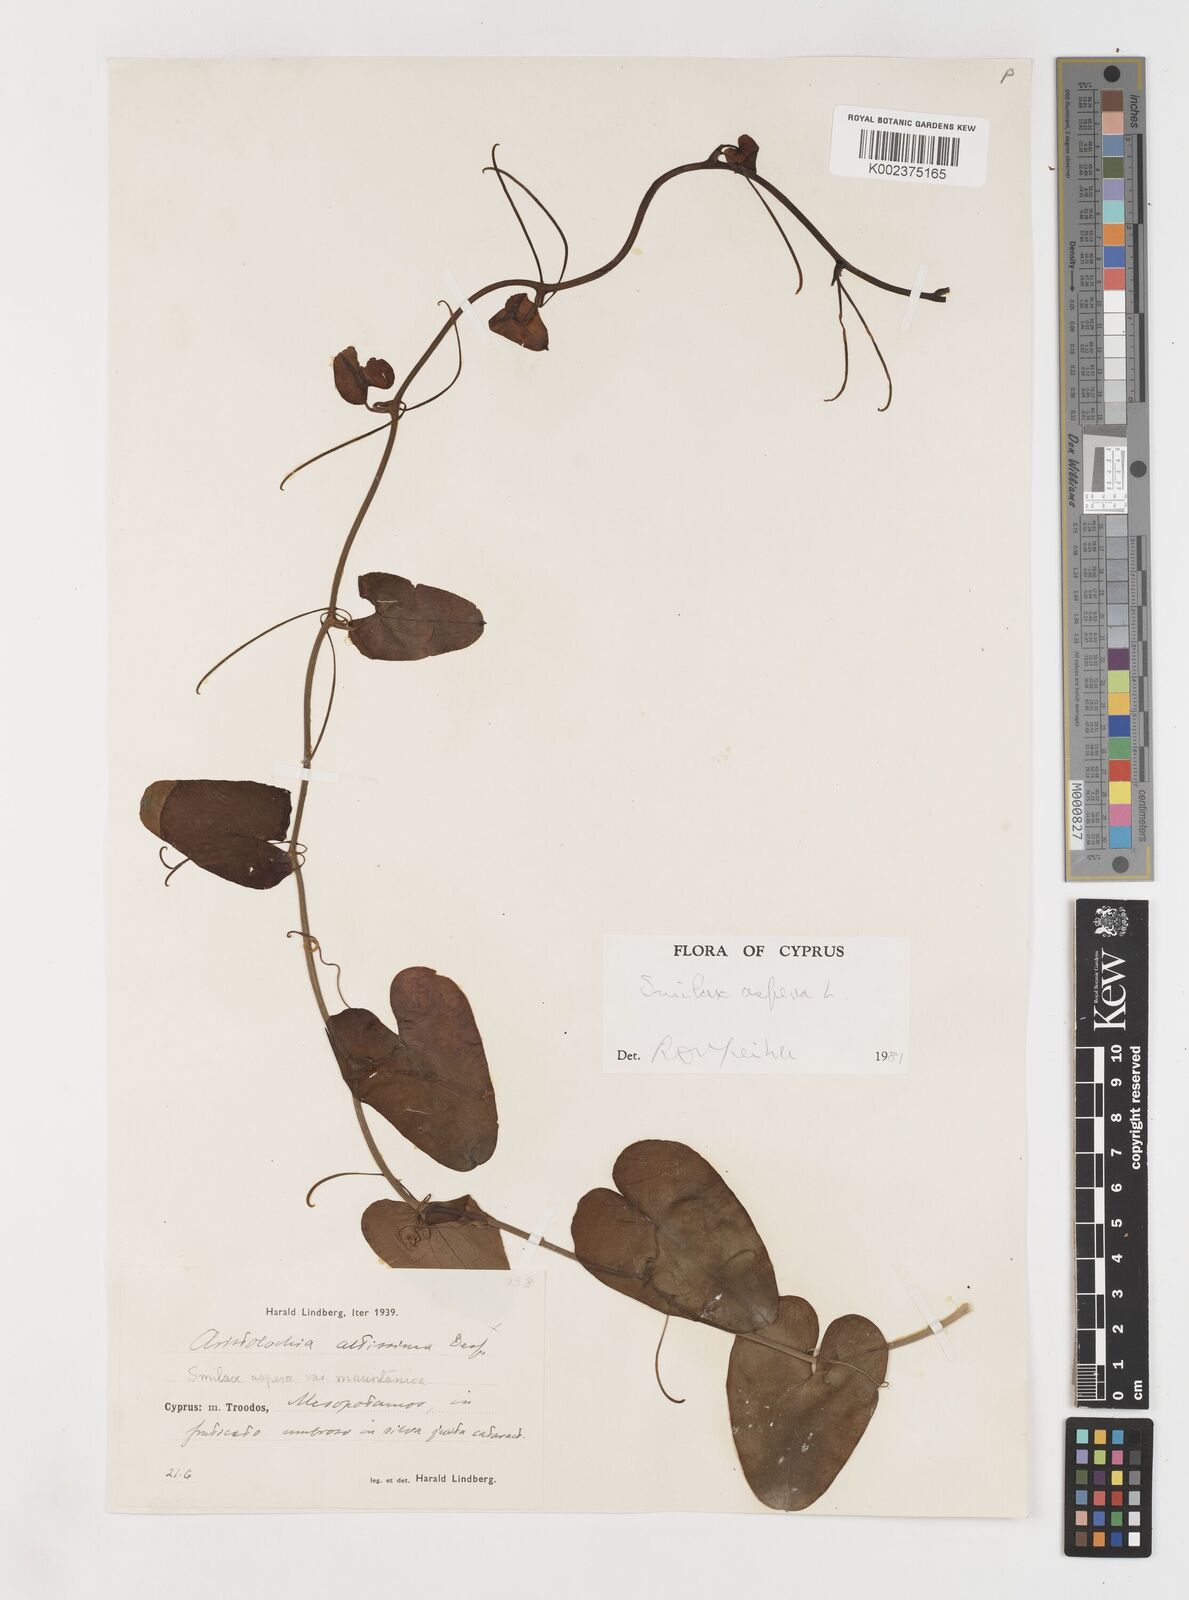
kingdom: Plantae
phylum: Tracheophyta
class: Liliopsida
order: Liliales
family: Smilacaceae
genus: Smilax
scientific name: Smilax aspera
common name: Common smilax
